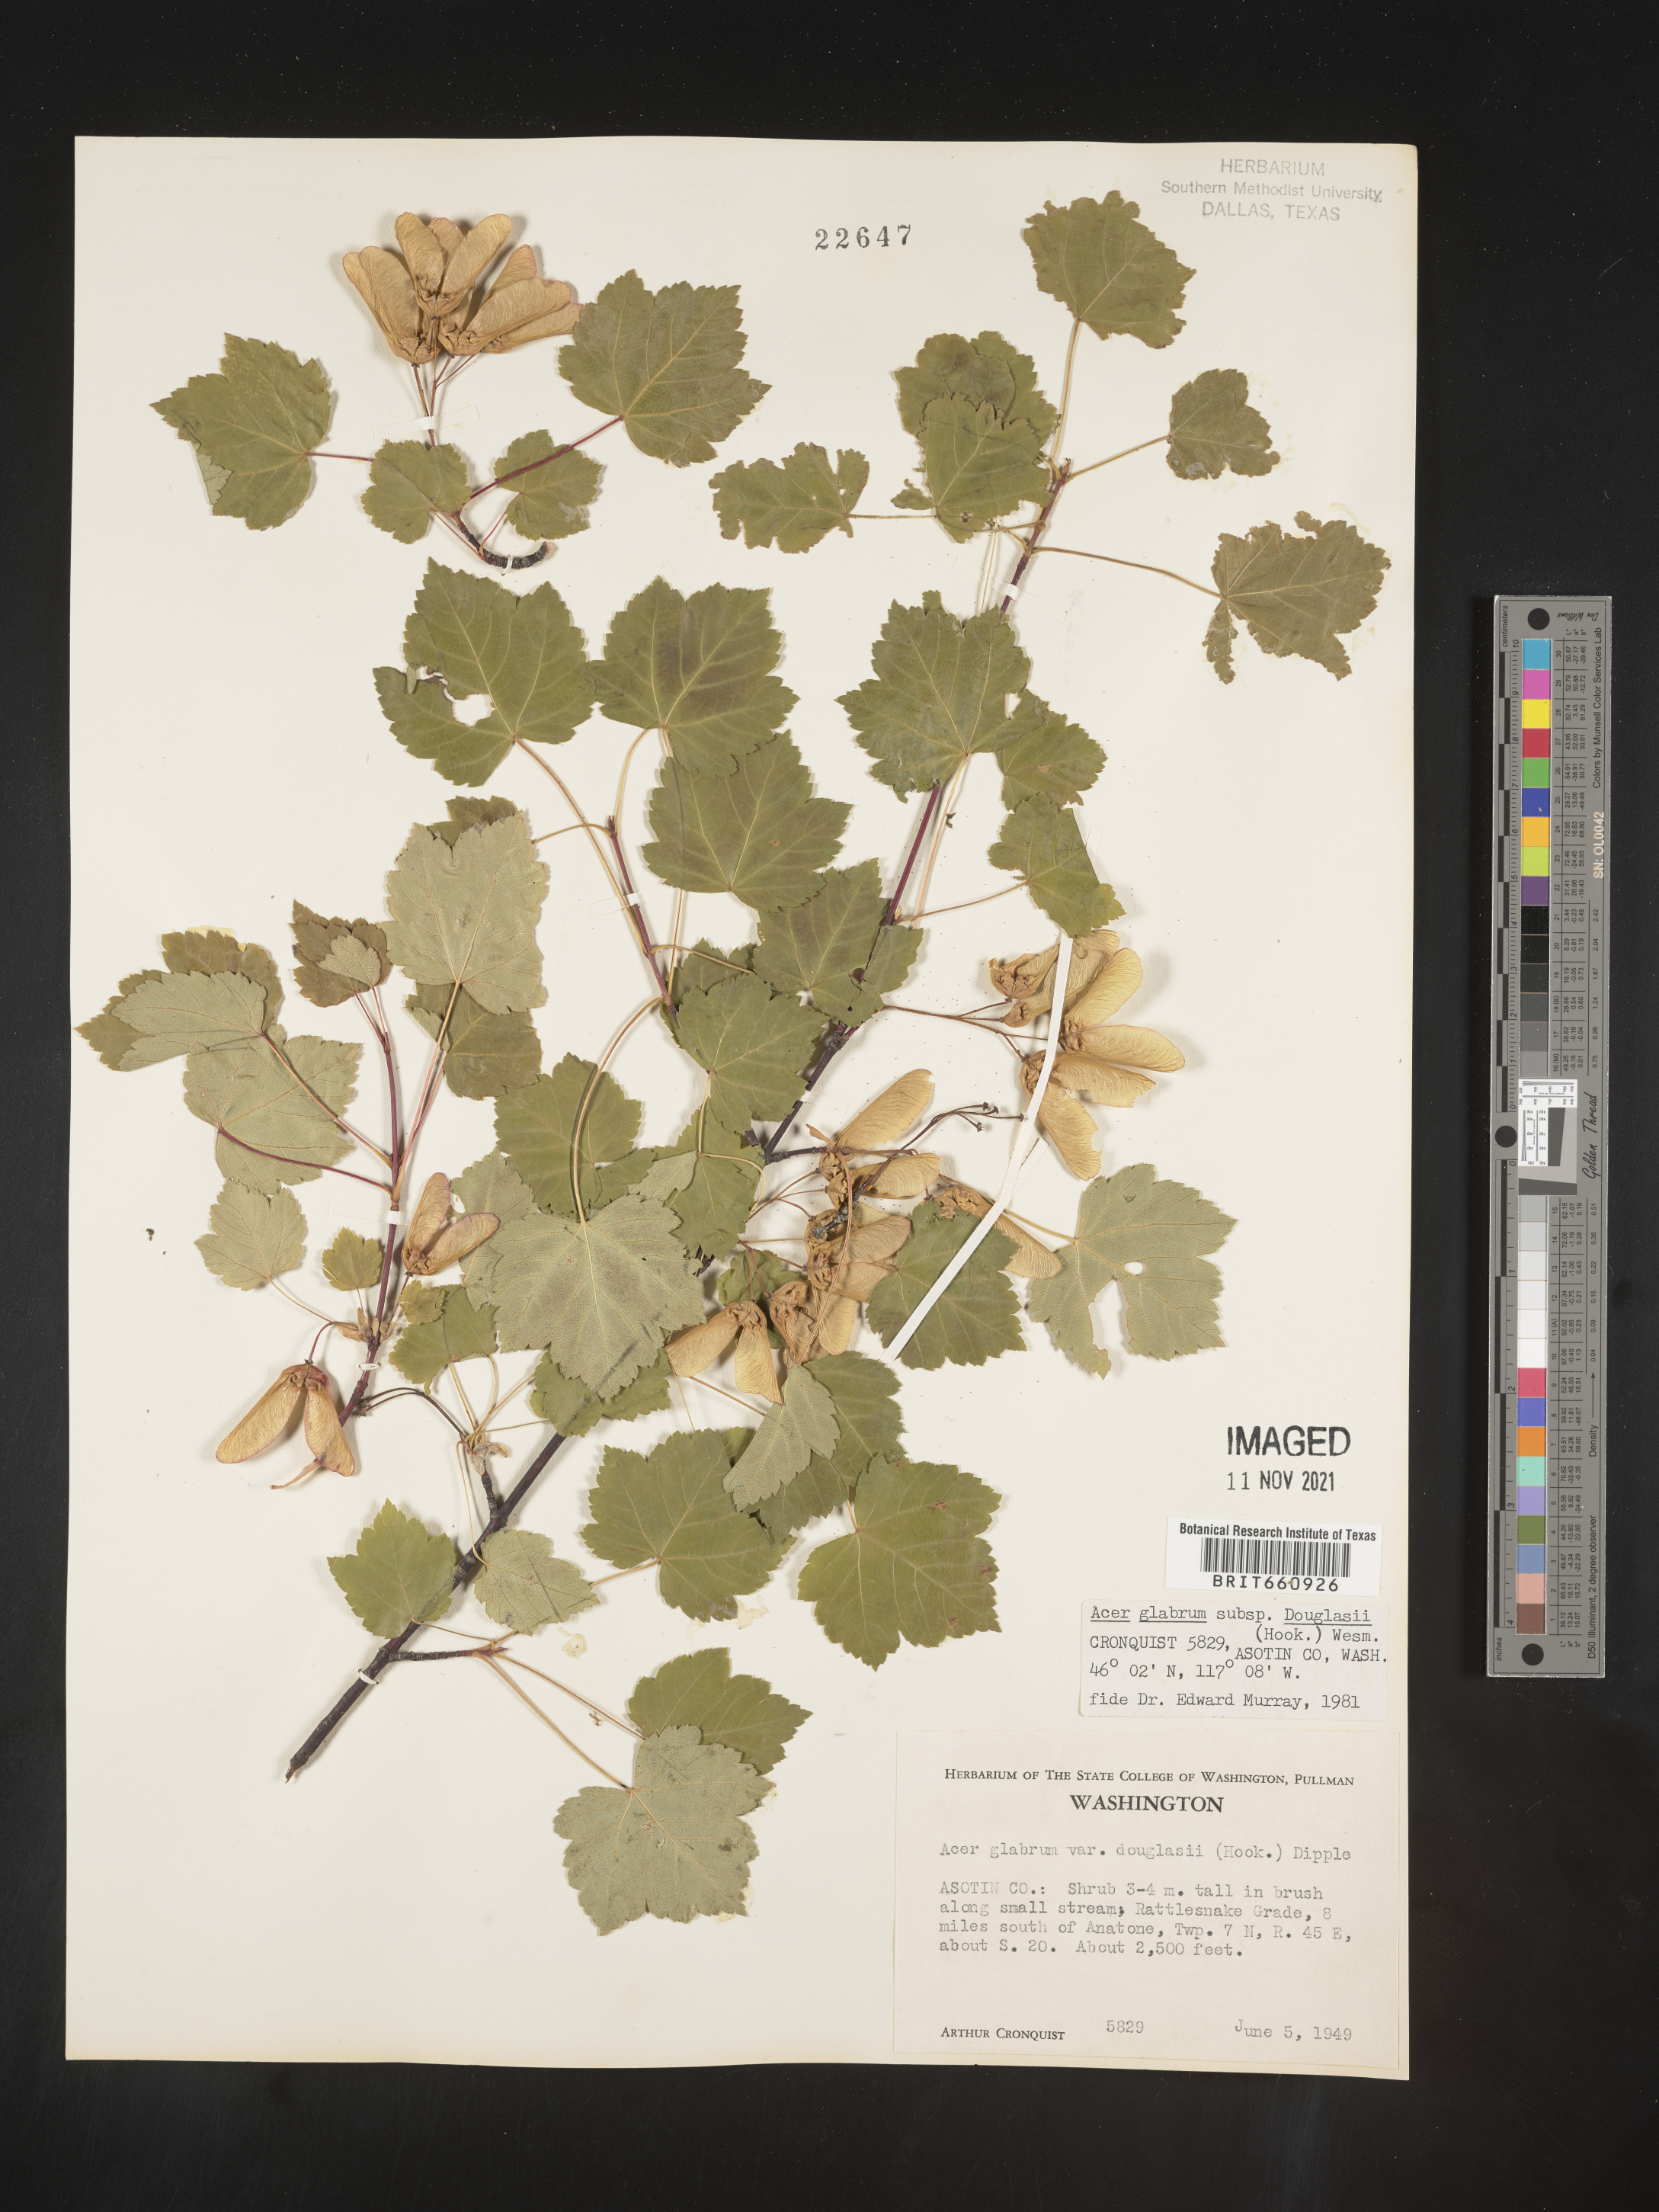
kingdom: Plantae
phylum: Tracheophyta
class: Magnoliopsida
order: Sapindales
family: Sapindaceae
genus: Acer
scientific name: Acer glabrum
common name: Rocky mountain maple
